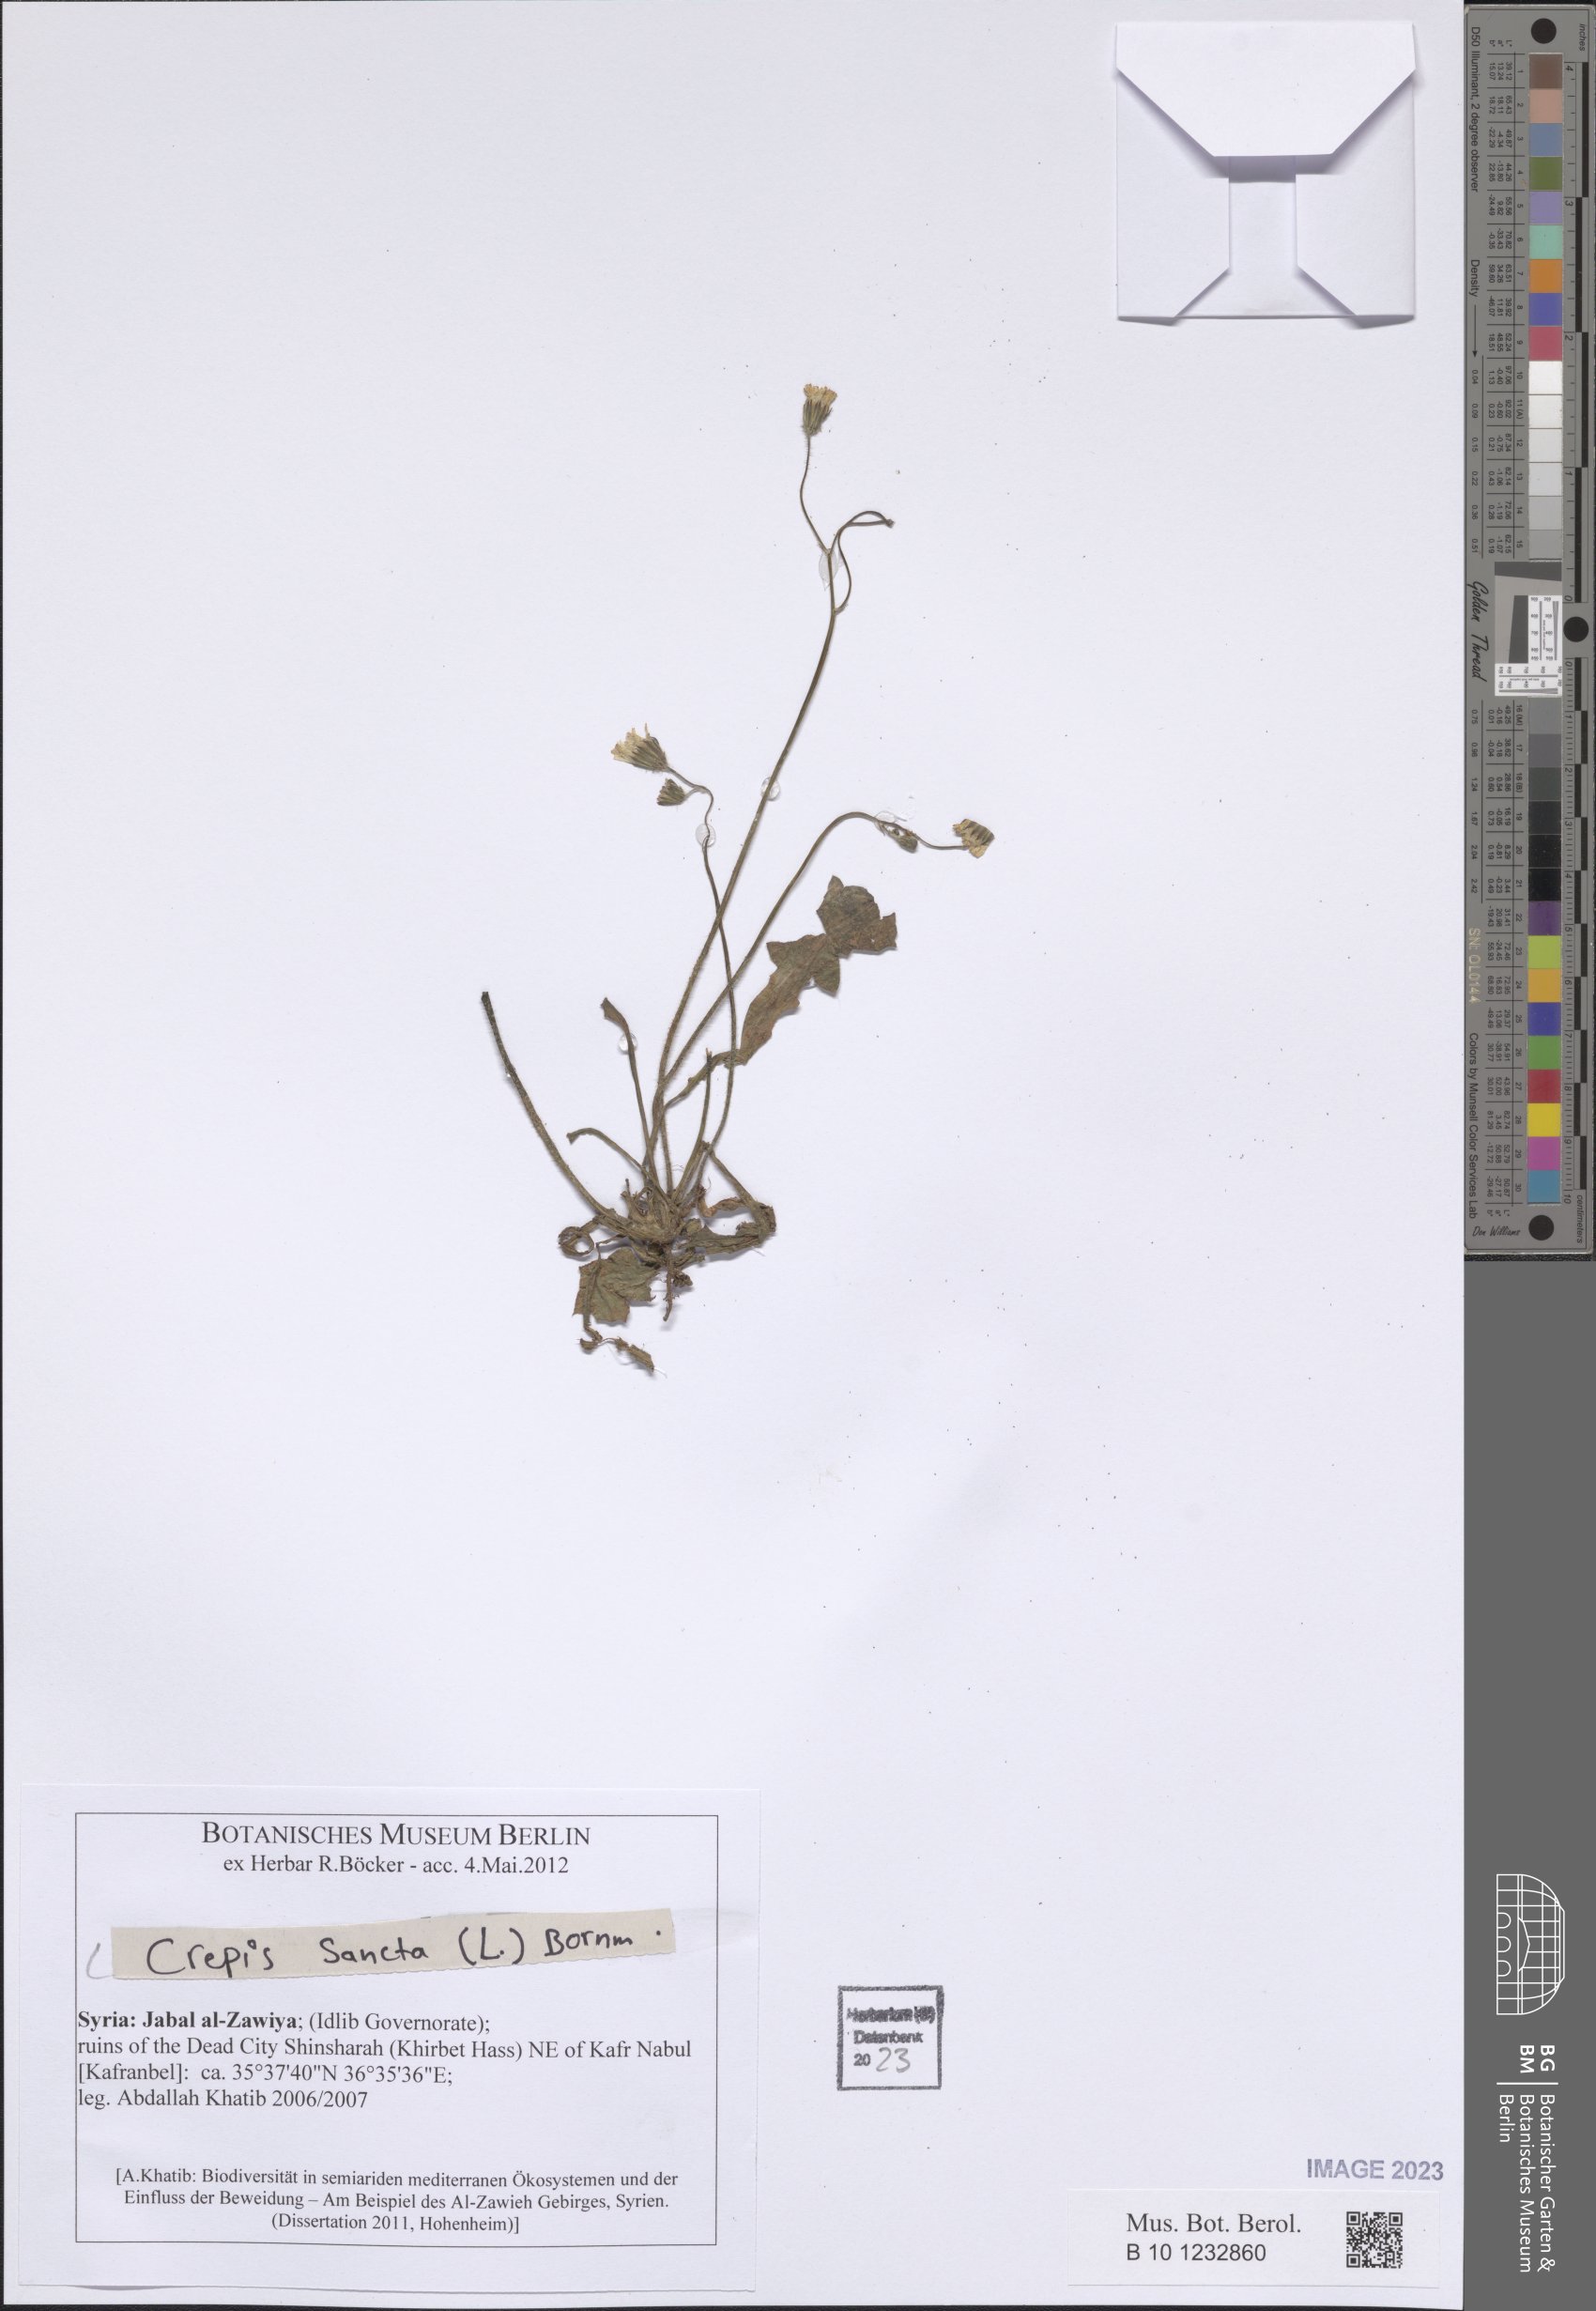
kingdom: Plantae
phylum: Tracheophyta
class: Magnoliopsida
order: Asterales
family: Asteraceae
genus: Crepis
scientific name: Crepis sancta
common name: Hawk's-beard
